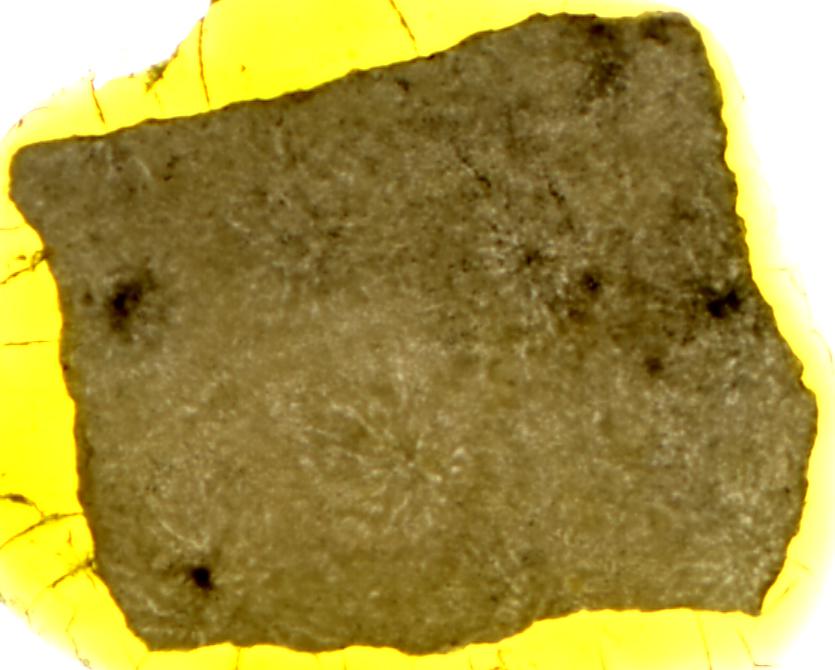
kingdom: Animalia
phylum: Porifera
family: Stromatoporidae
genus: Stromatopora
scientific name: Stromatopora
